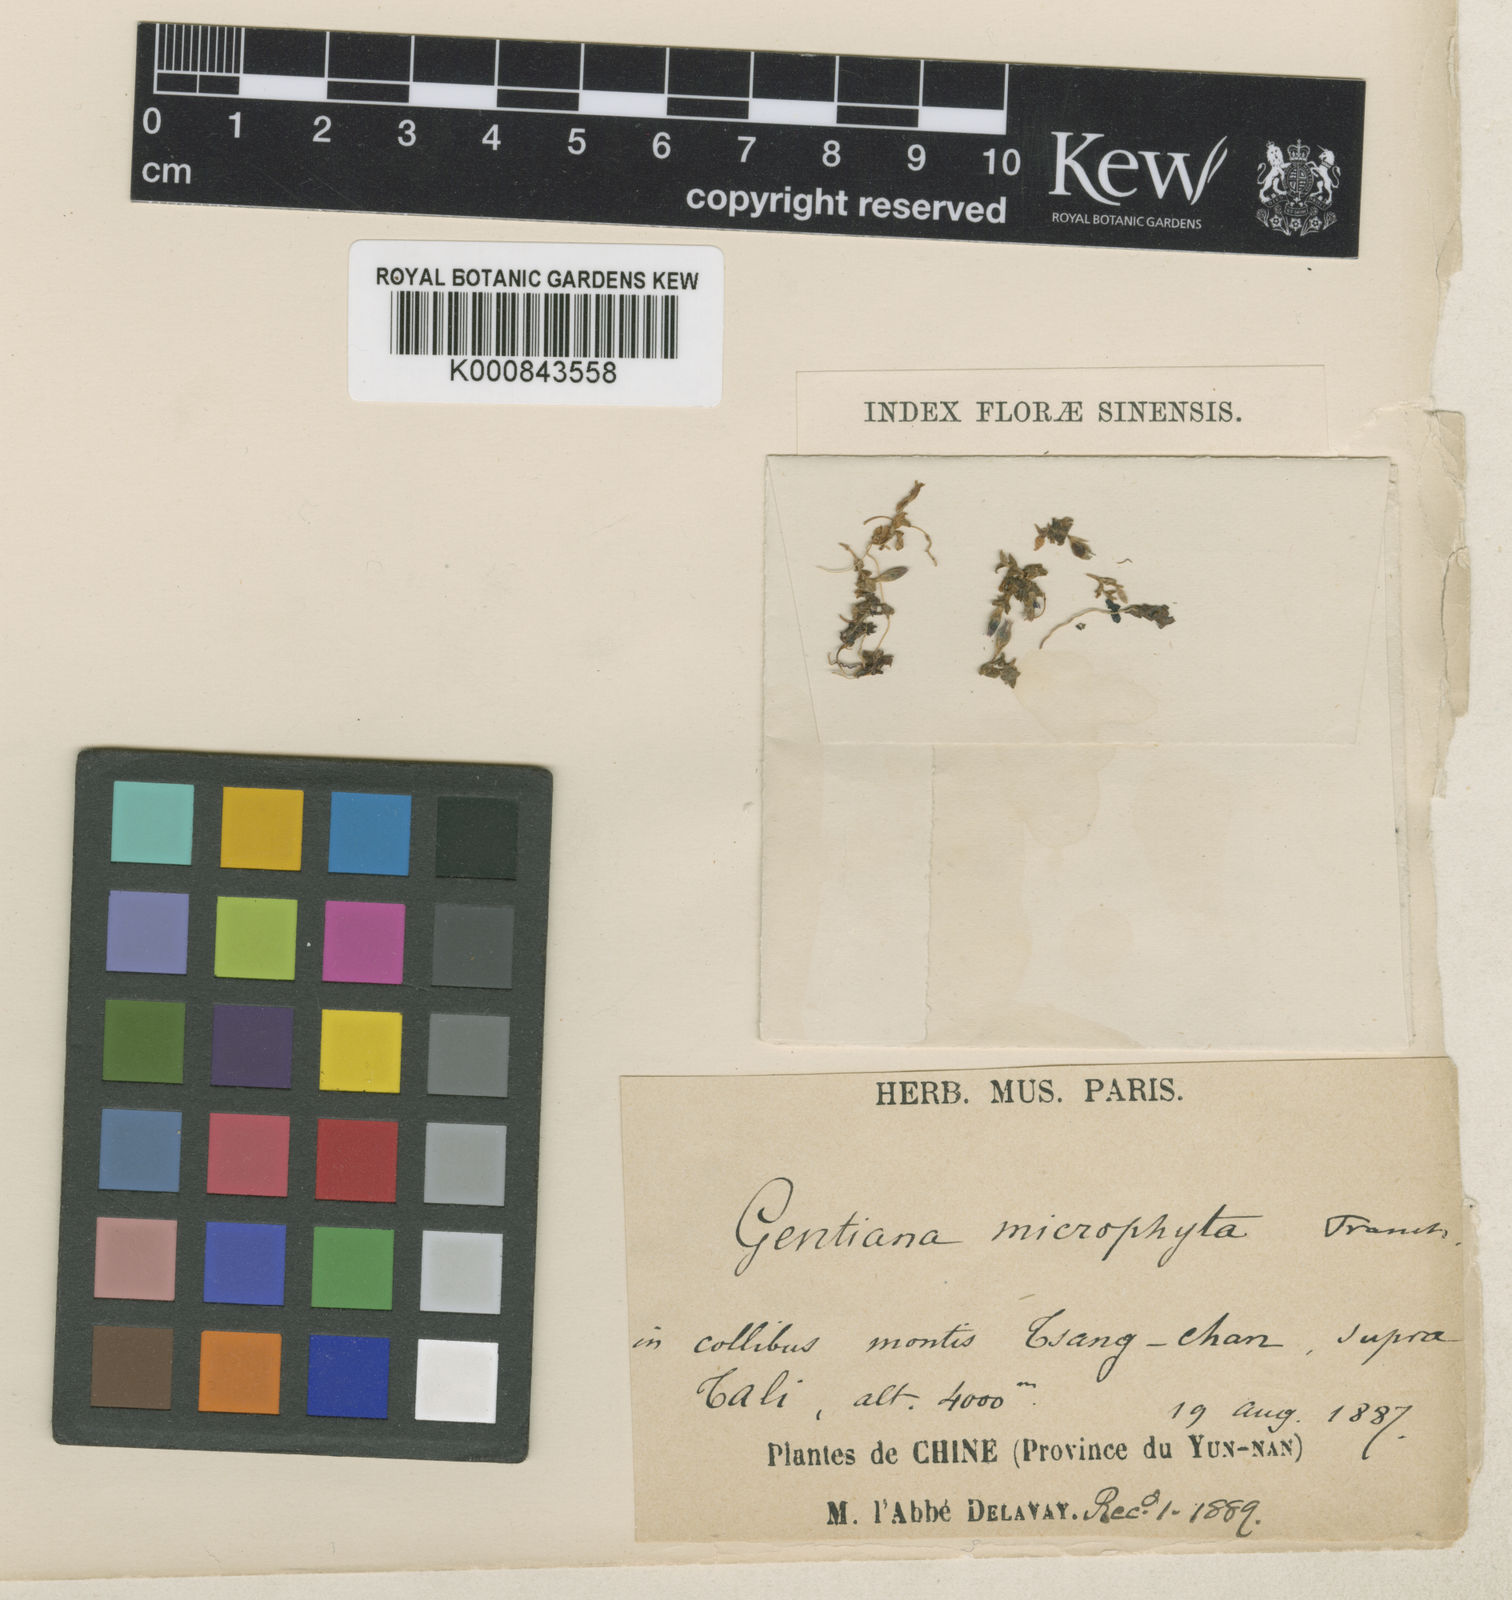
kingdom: Plantae
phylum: Tracheophyta
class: Magnoliopsida
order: Gentianales
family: Gentianaceae
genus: Gentiana
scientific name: Gentiana microphyta
